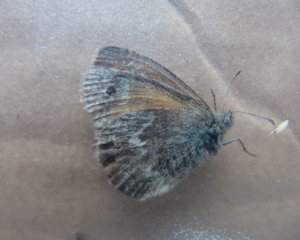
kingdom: Animalia
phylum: Arthropoda
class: Insecta
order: Lepidoptera
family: Nymphalidae
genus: Coenonympha
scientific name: Coenonympha tullia
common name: Large Heath
